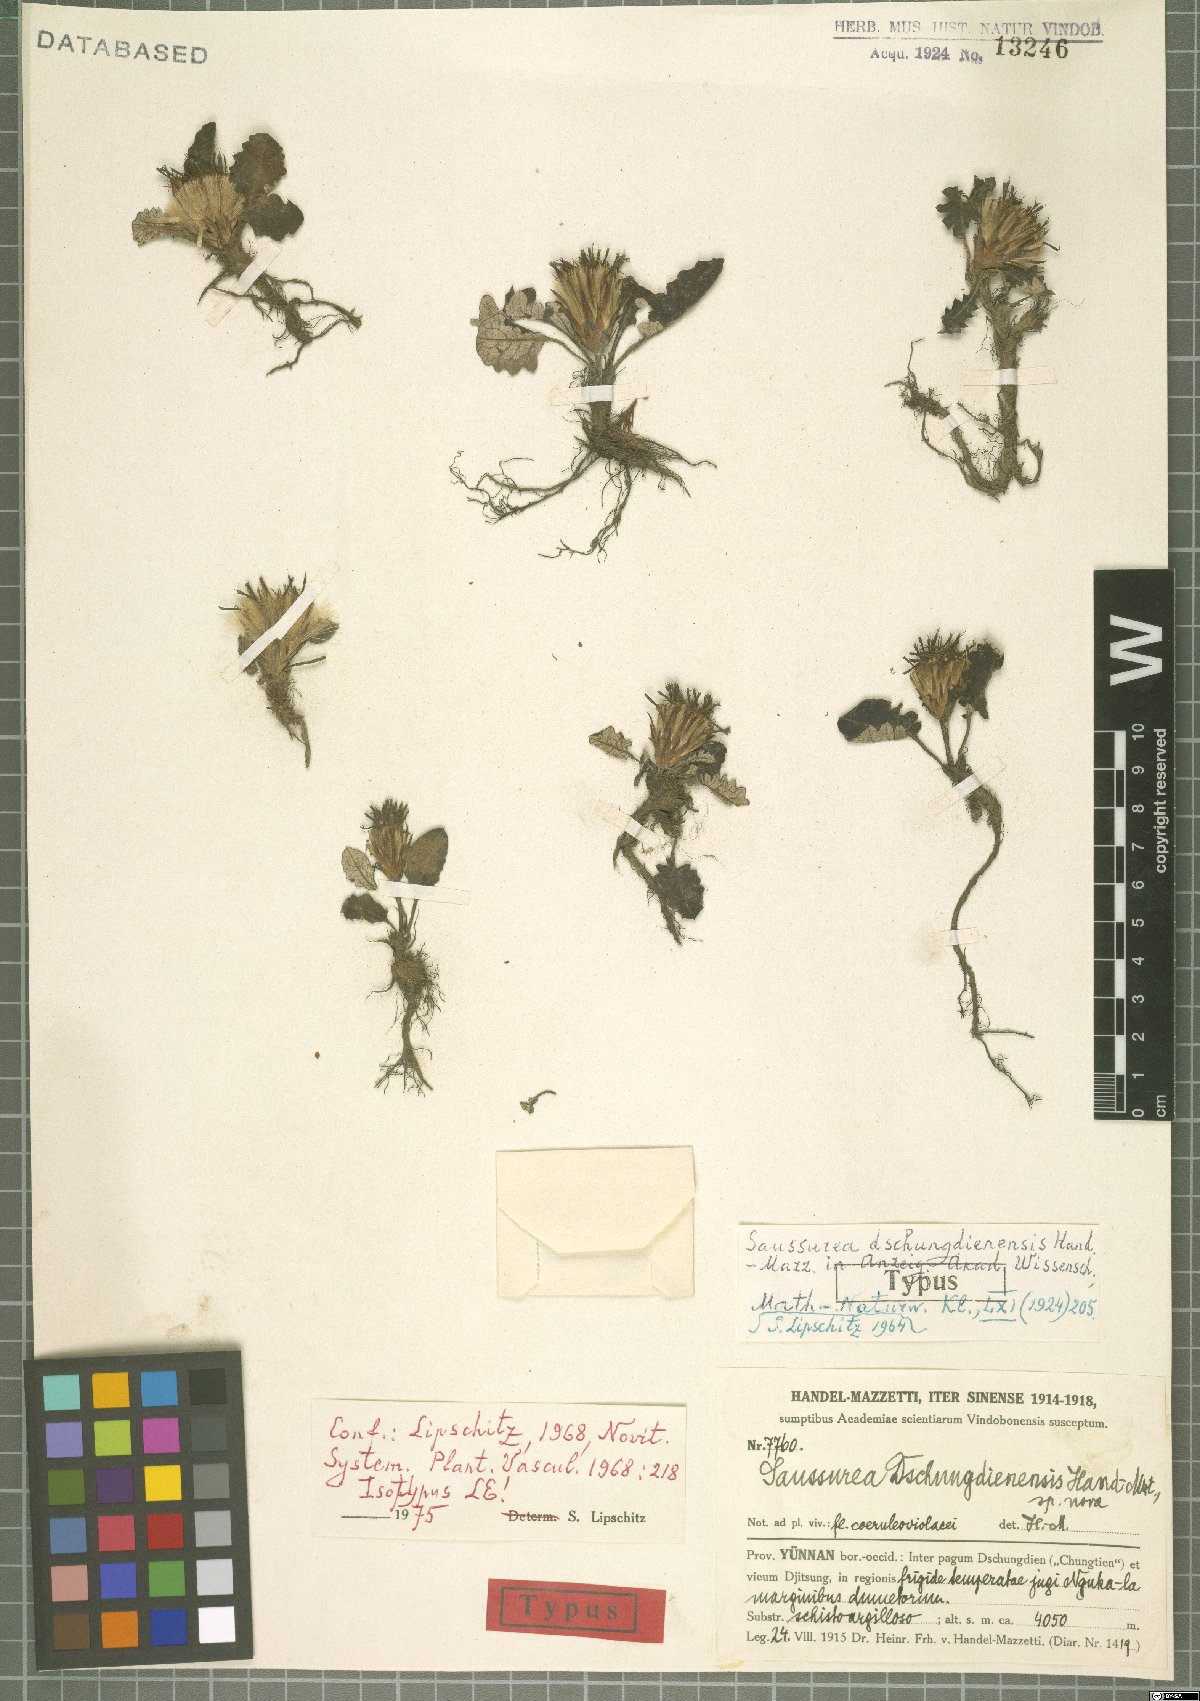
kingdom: Plantae
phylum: Tracheophyta
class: Magnoliopsida
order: Asterales
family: Asteraceae
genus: Saussurea
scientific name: Saussurea dschungdienensis
